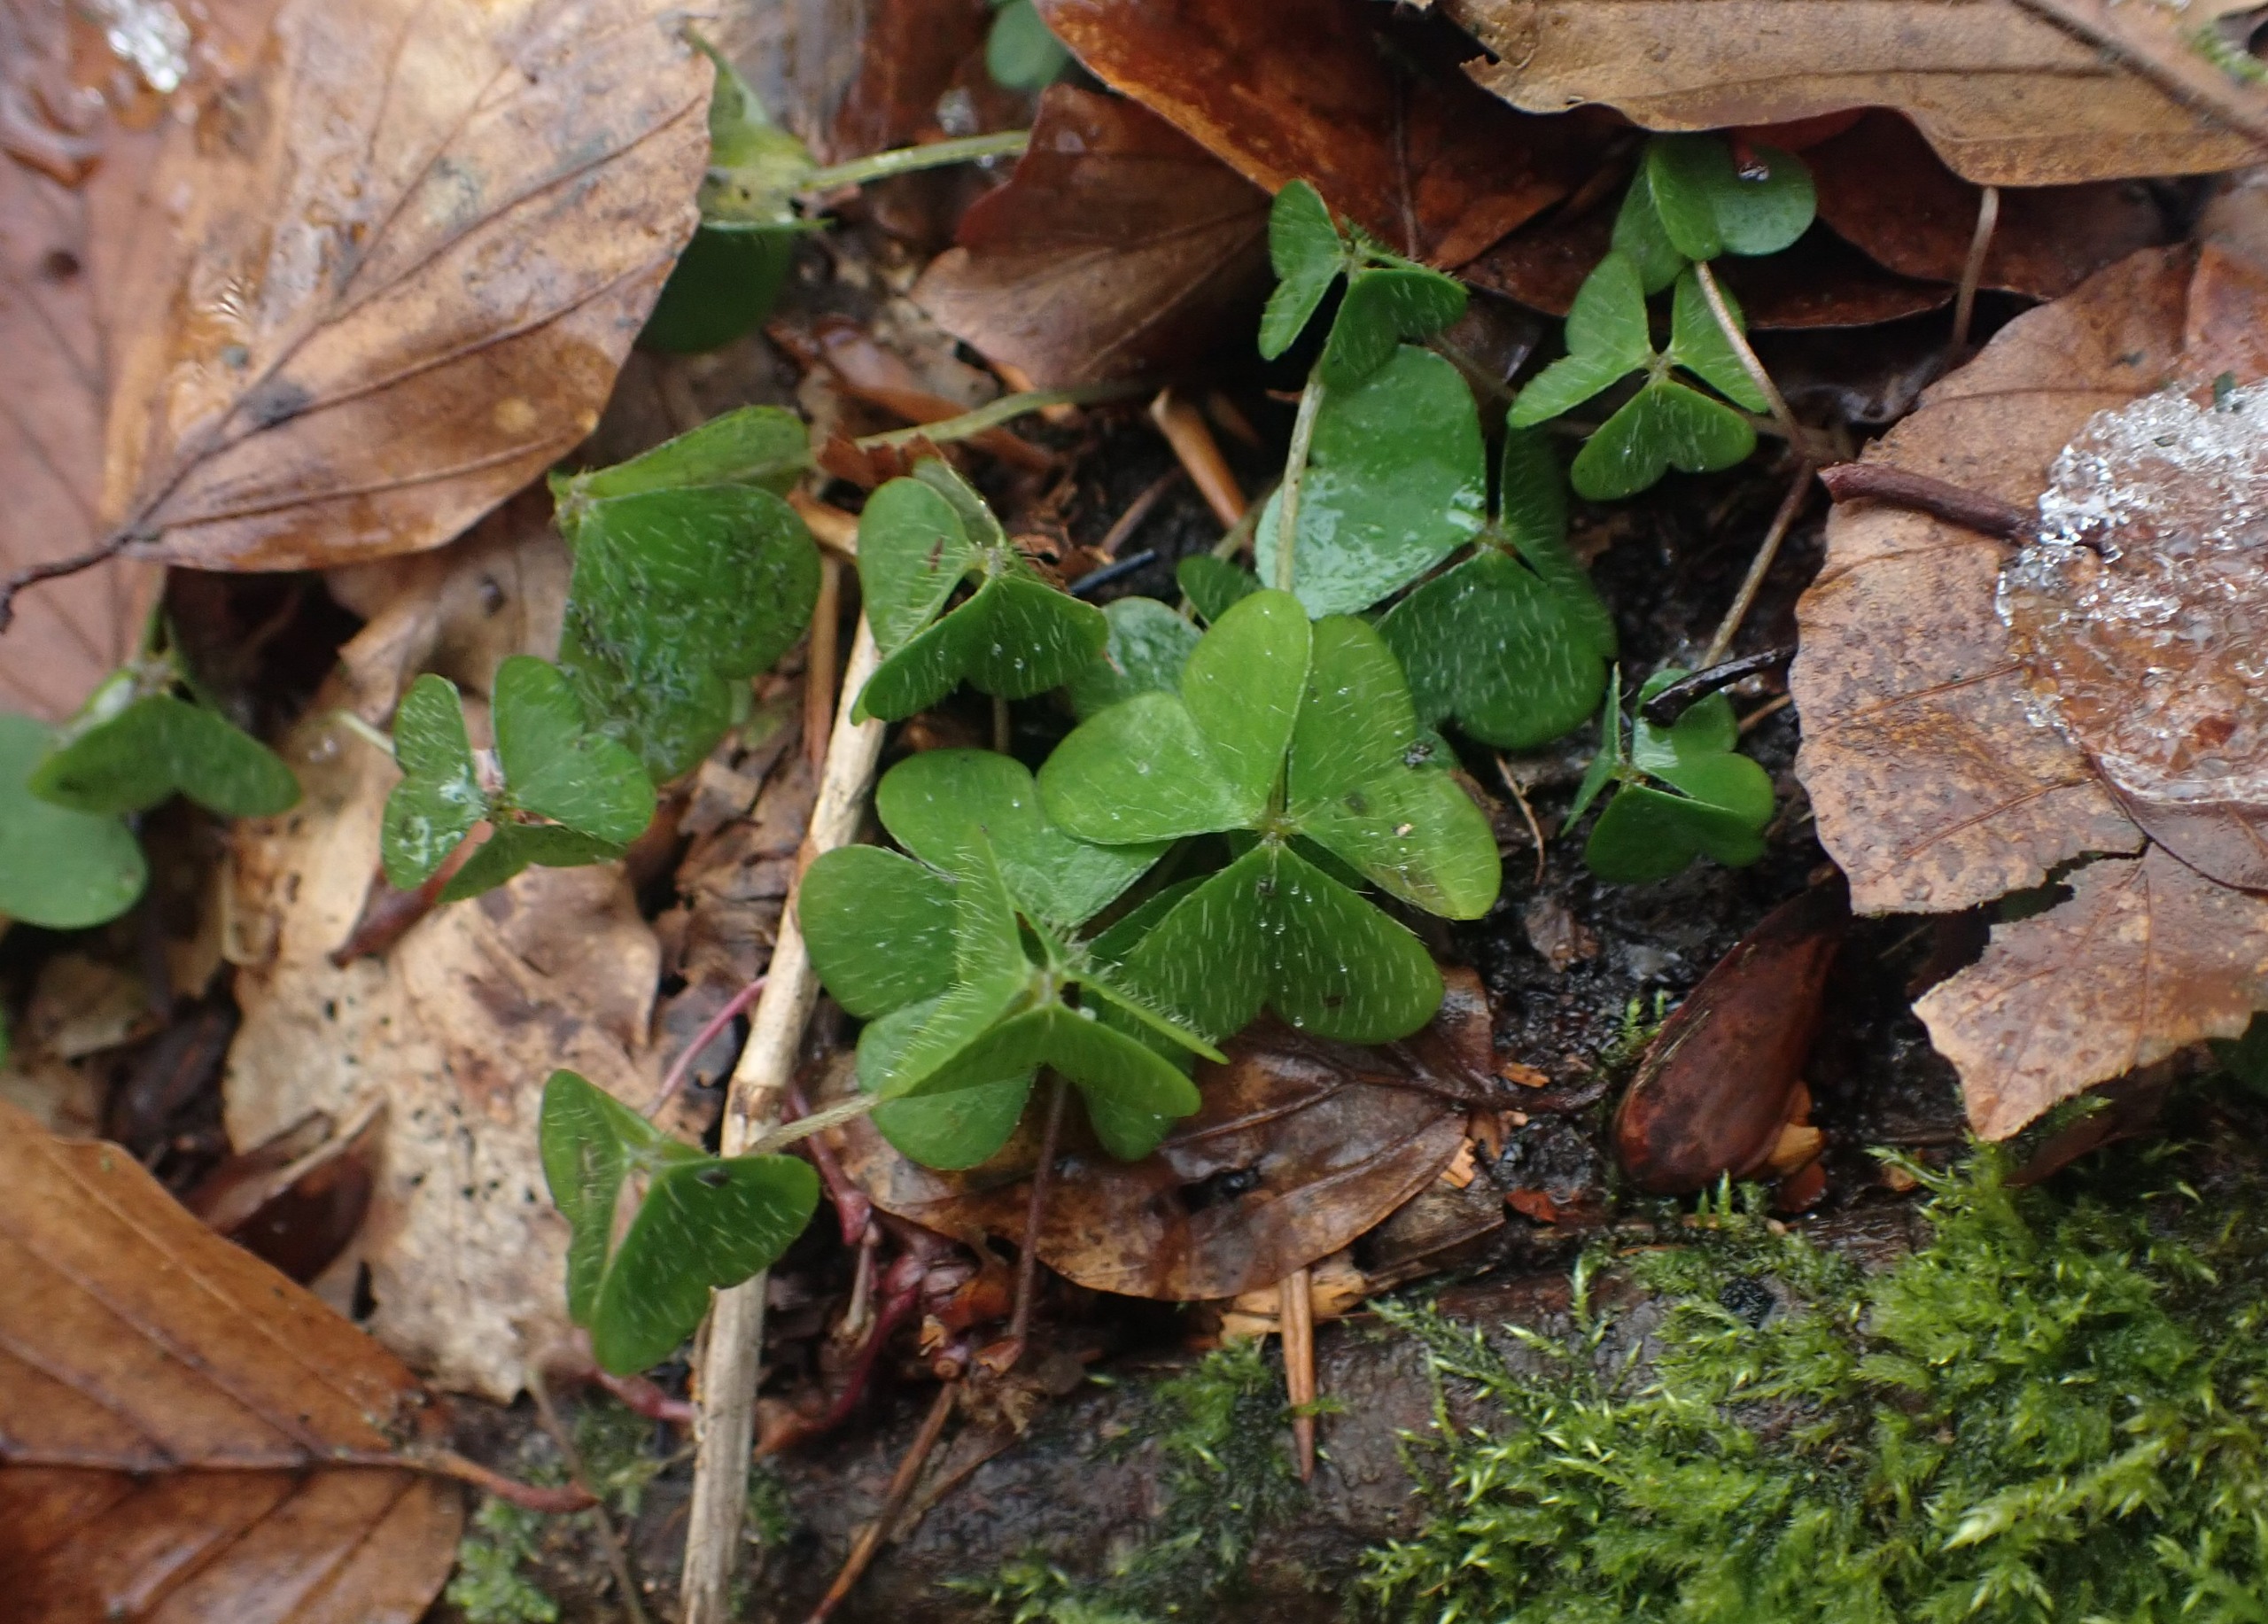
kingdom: Plantae
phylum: Tracheophyta
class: Magnoliopsida
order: Oxalidales
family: Oxalidaceae
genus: Oxalis
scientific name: Oxalis acetosella
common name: Skovsyre
